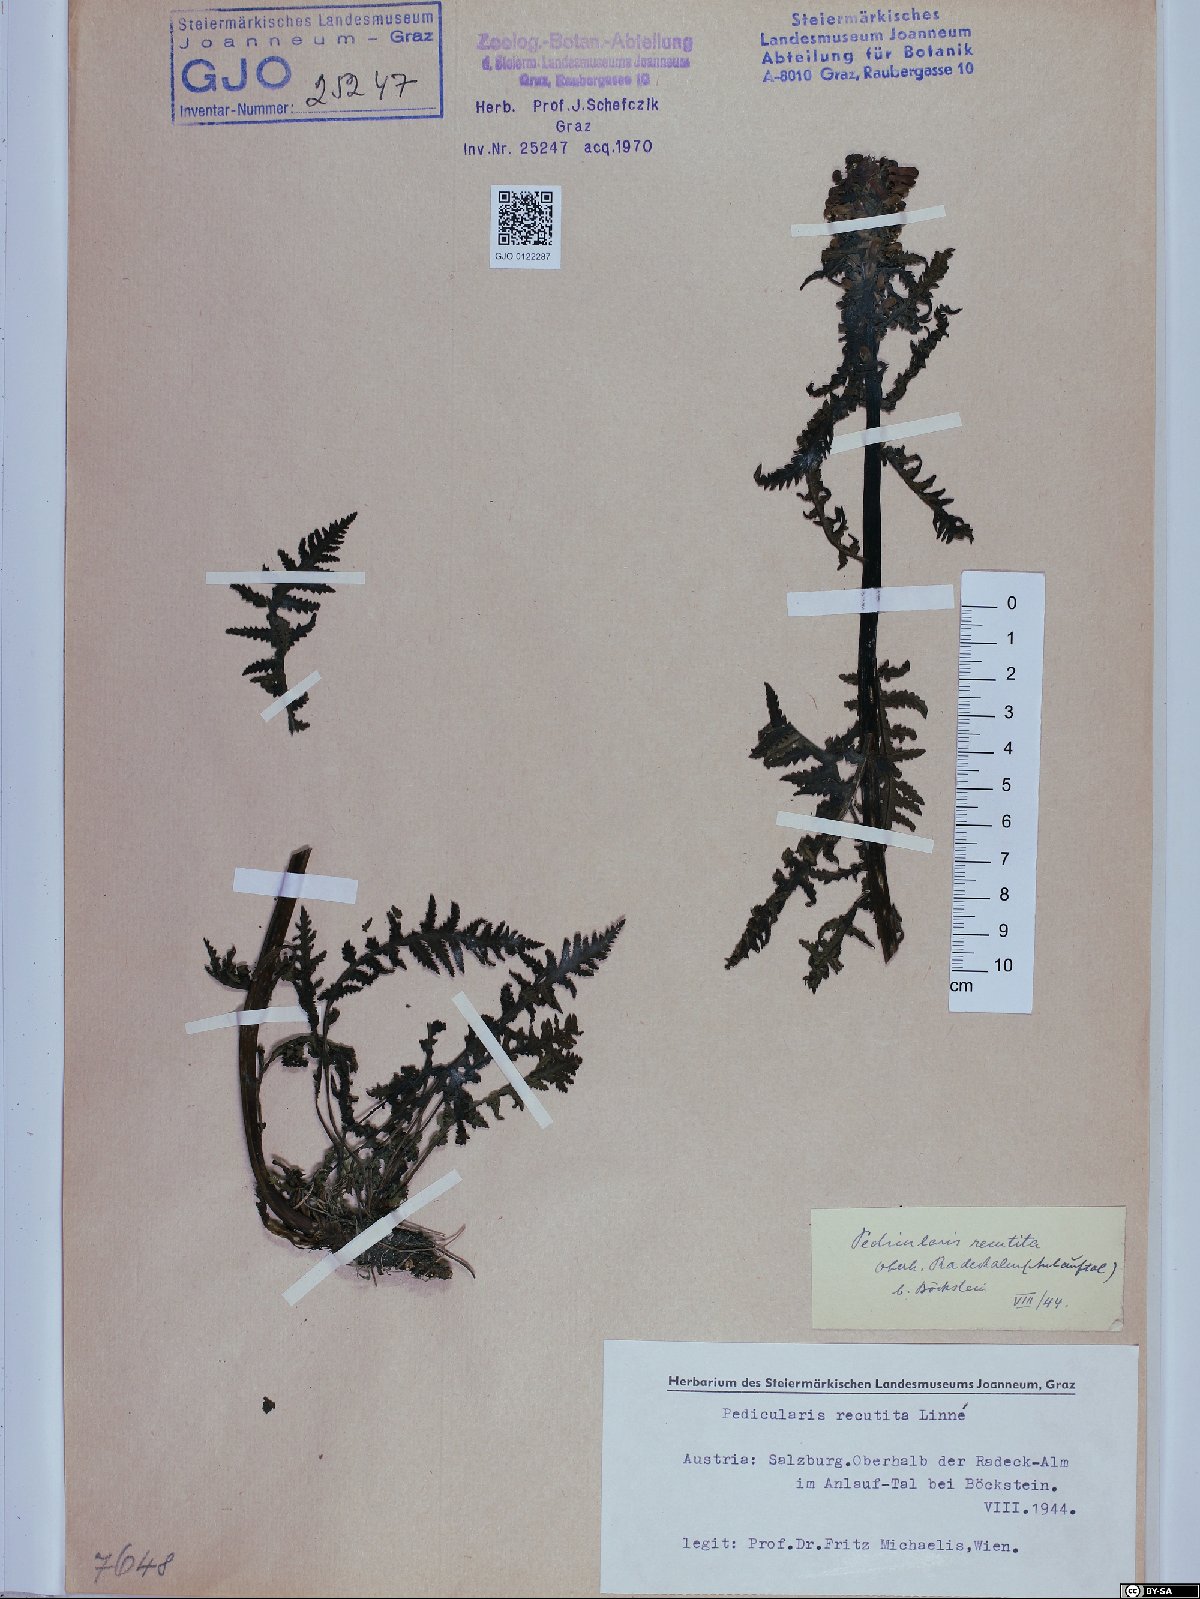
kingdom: Plantae
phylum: Tracheophyta
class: Magnoliopsida
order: Lamiales
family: Orobanchaceae
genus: Pedicularis
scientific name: Pedicularis recutita
